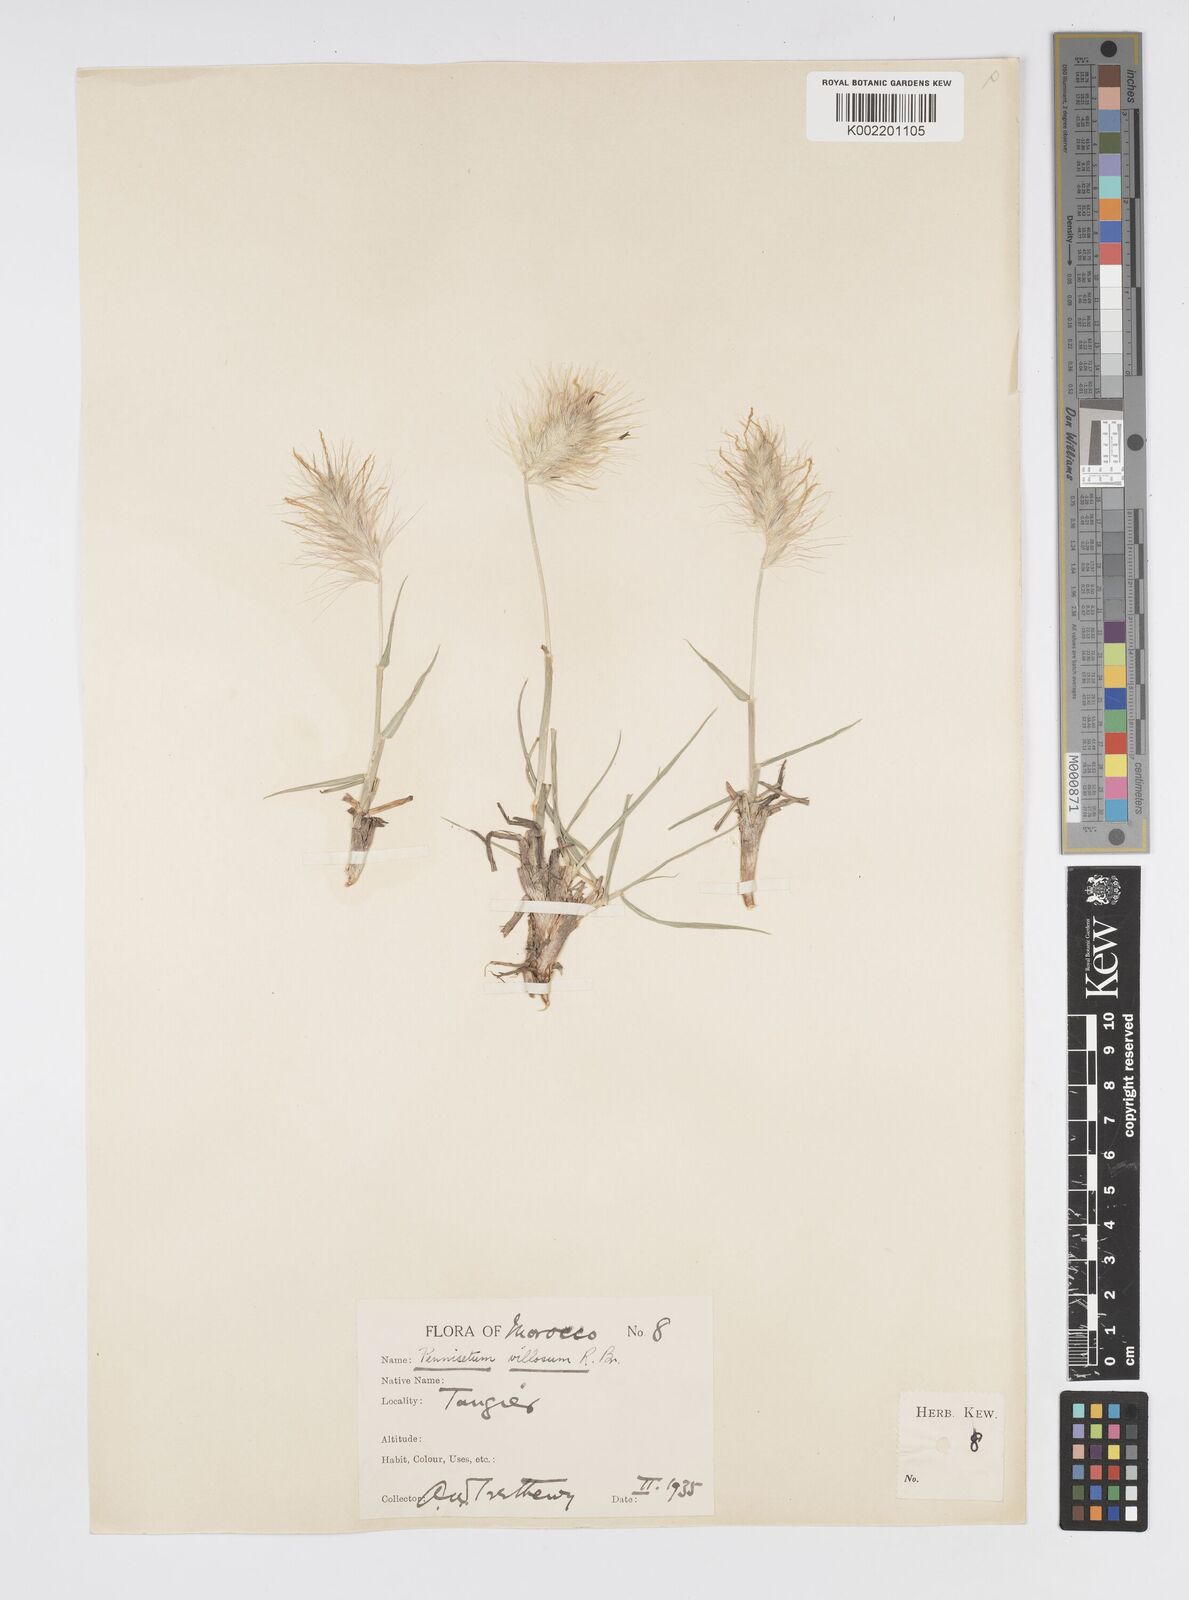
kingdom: Plantae
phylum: Tracheophyta
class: Liliopsida
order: Poales
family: Poaceae
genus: Cenchrus
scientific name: Cenchrus longisetus
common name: Feathertop
